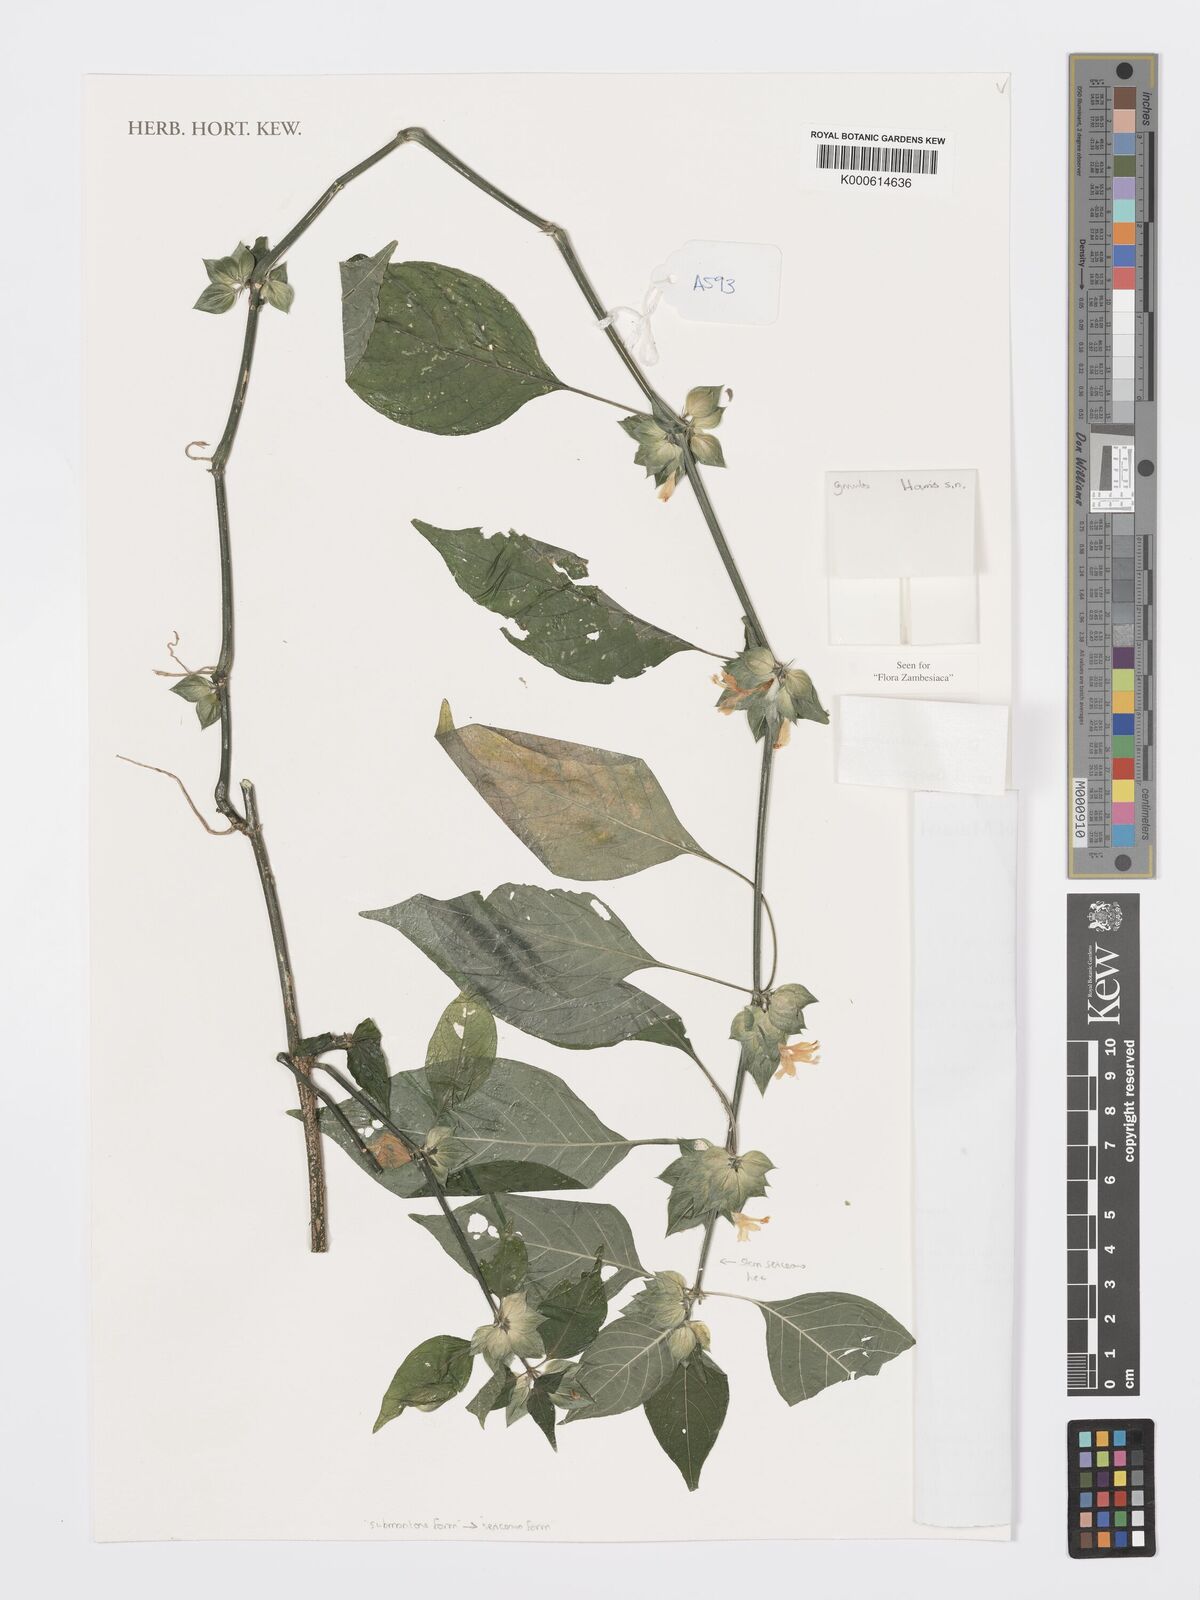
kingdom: Plantae
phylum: Tracheophyta
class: Magnoliopsida
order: Lamiales
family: Acanthaceae
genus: Dicliptera
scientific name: Dicliptera
